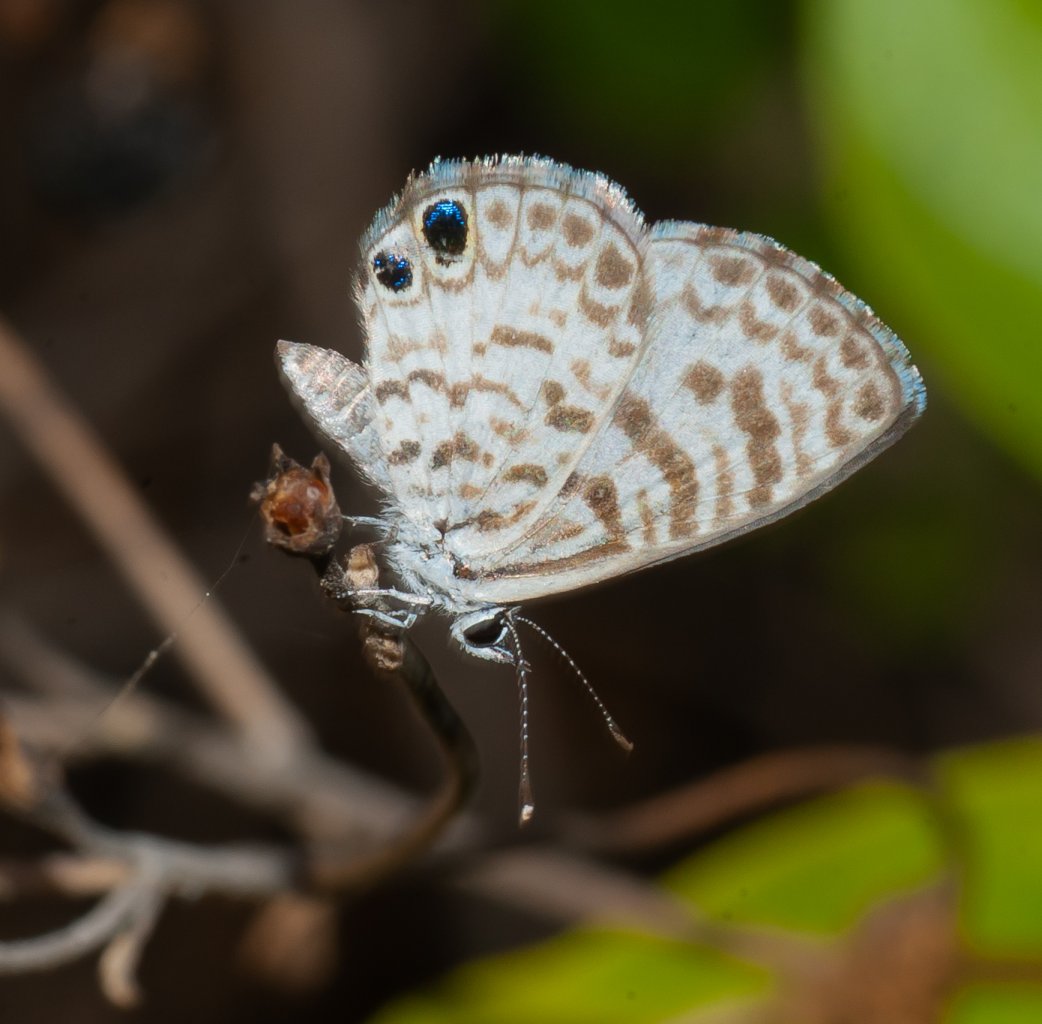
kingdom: Animalia
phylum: Arthropoda
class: Insecta
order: Lepidoptera
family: Lycaenidae
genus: Leptotes
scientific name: Leptotes cassius
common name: Cassius Blue
